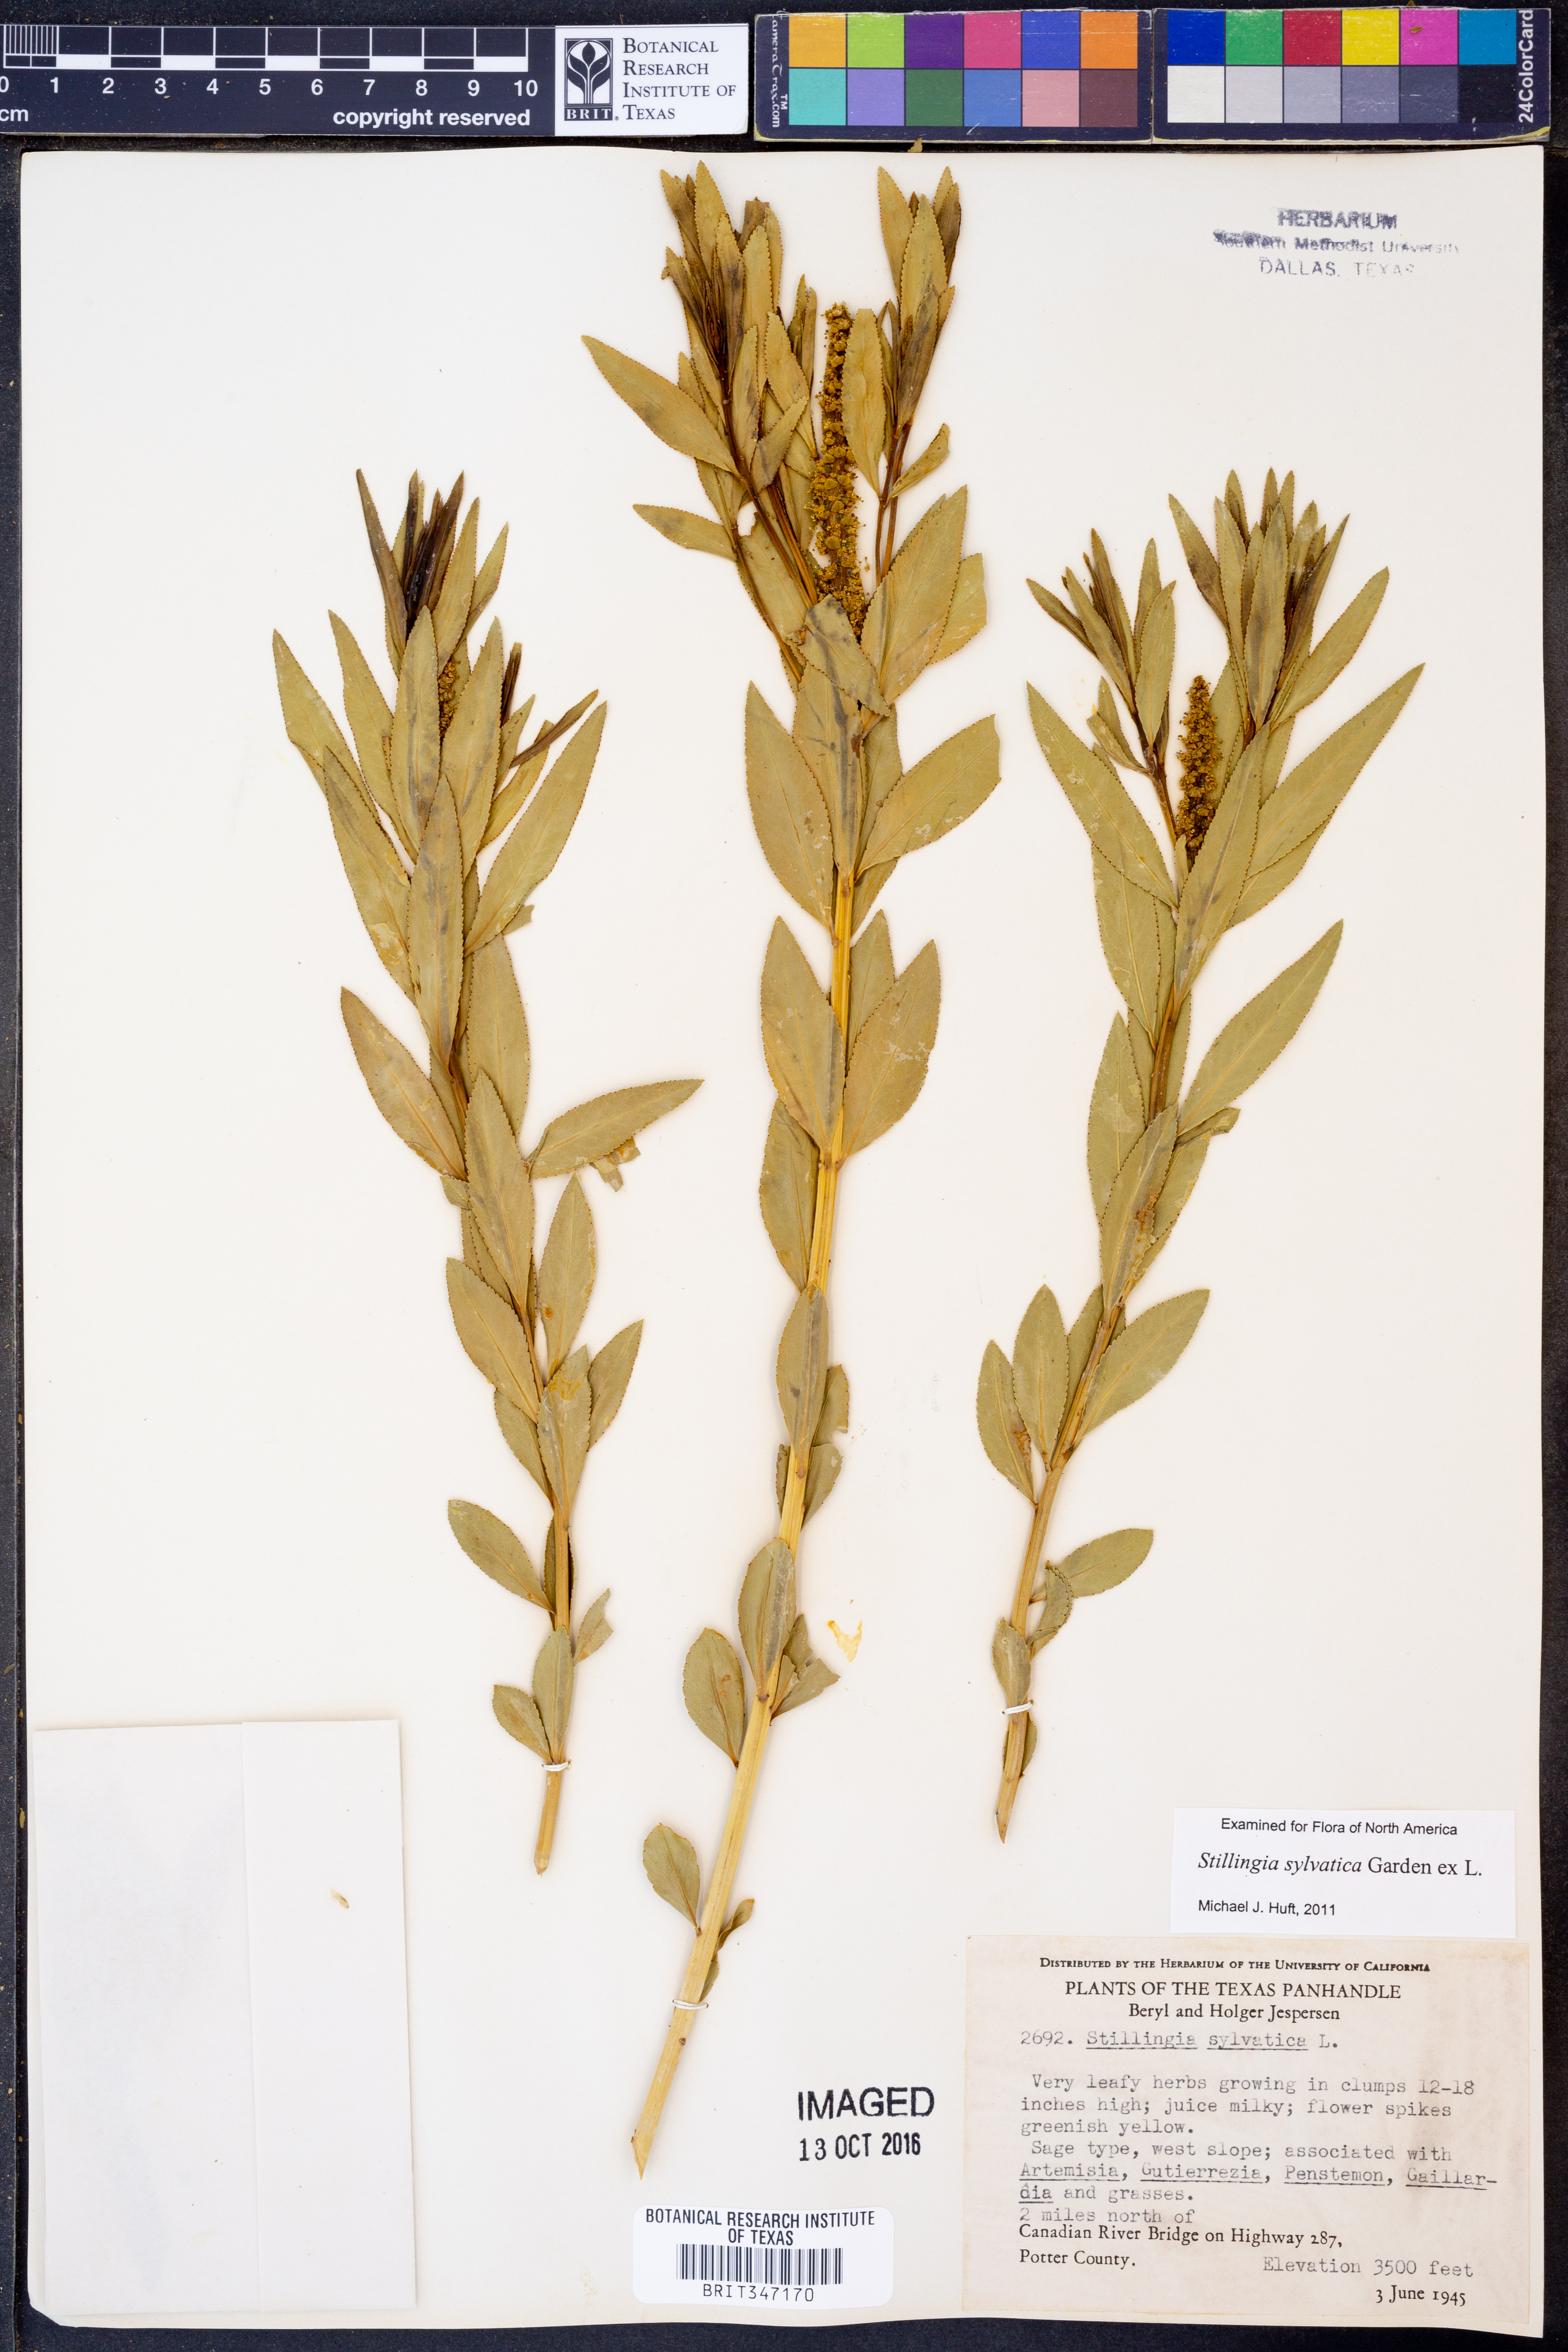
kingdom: Plantae
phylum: Tracheophyta
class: Magnoliopsida
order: Malpighiales
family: Euphorbiaceae
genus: Stillingia
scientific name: Stillingia sylvatica
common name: Queen's-delight
